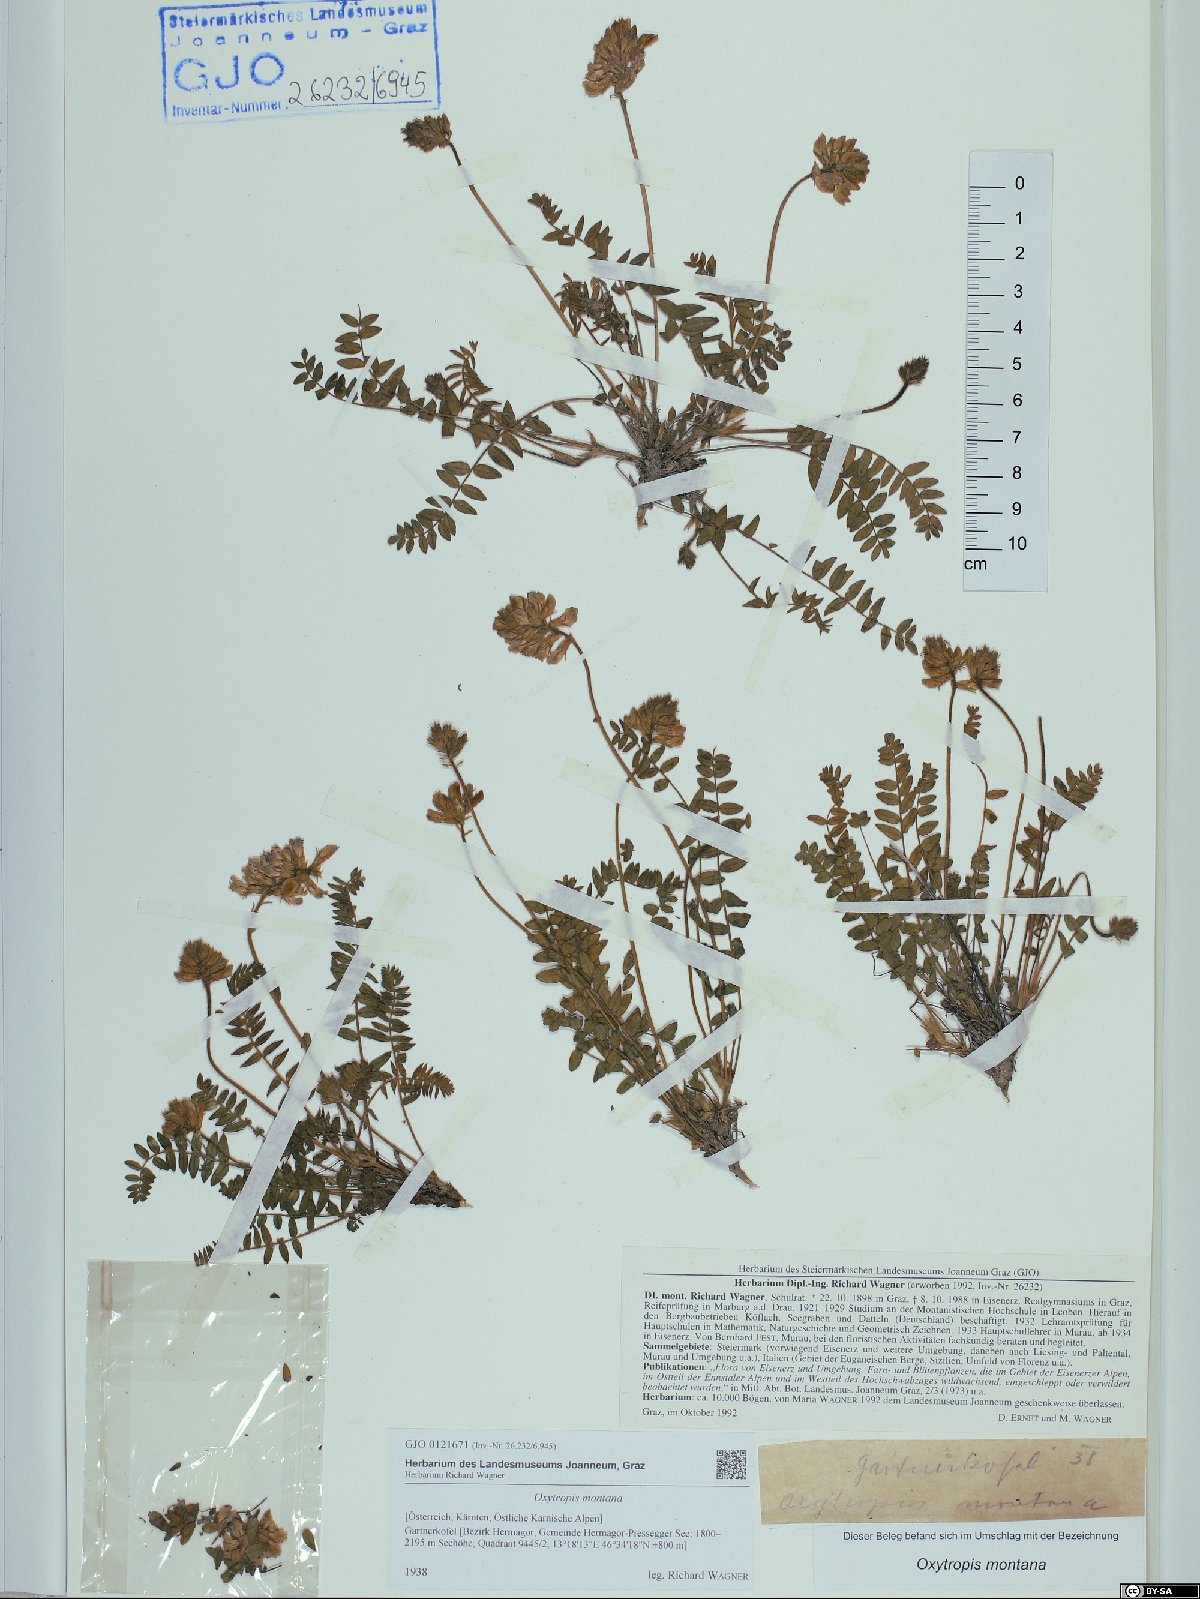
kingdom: Plantae
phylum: Tracheophyta
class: Magnoliopsida
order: Fabales
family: Fabaceae
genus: Oxytropis
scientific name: Oxytropis montana
